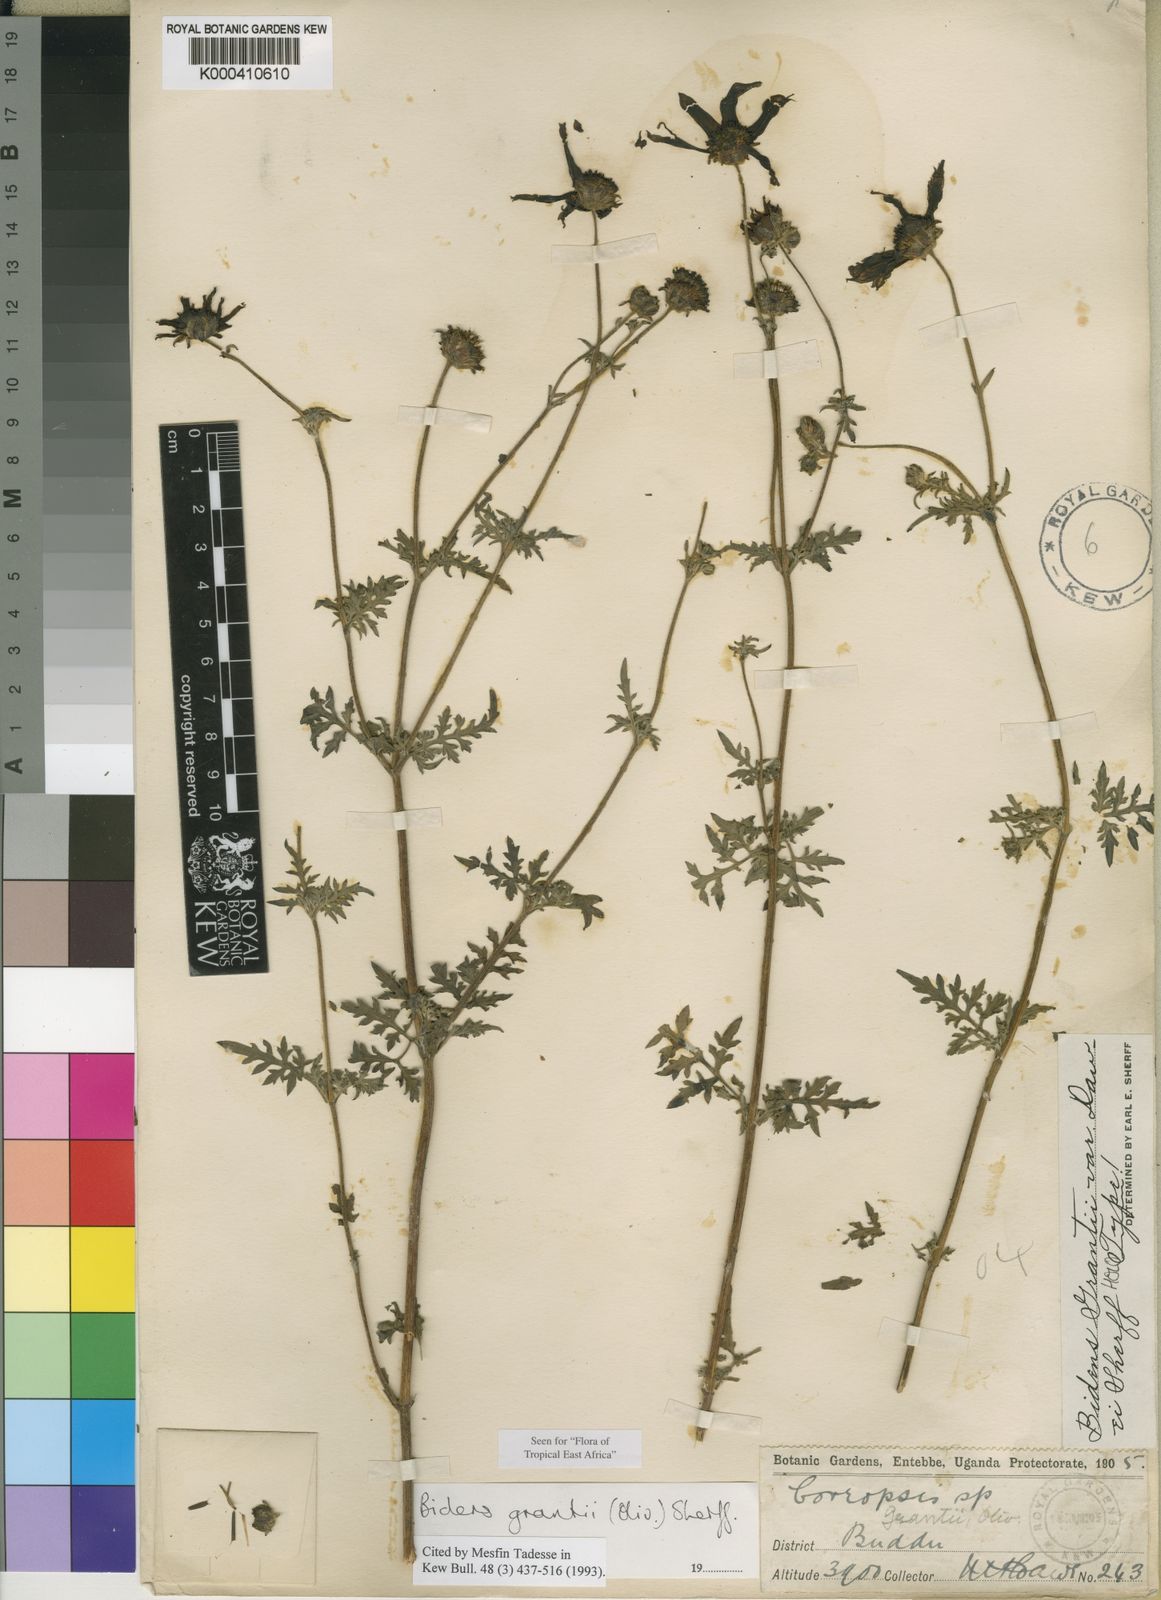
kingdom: Plantae
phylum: Tracheophyta
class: Magnoliopsida
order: Asterales
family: Asteraceae
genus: Bidens
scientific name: Bidens grantii
